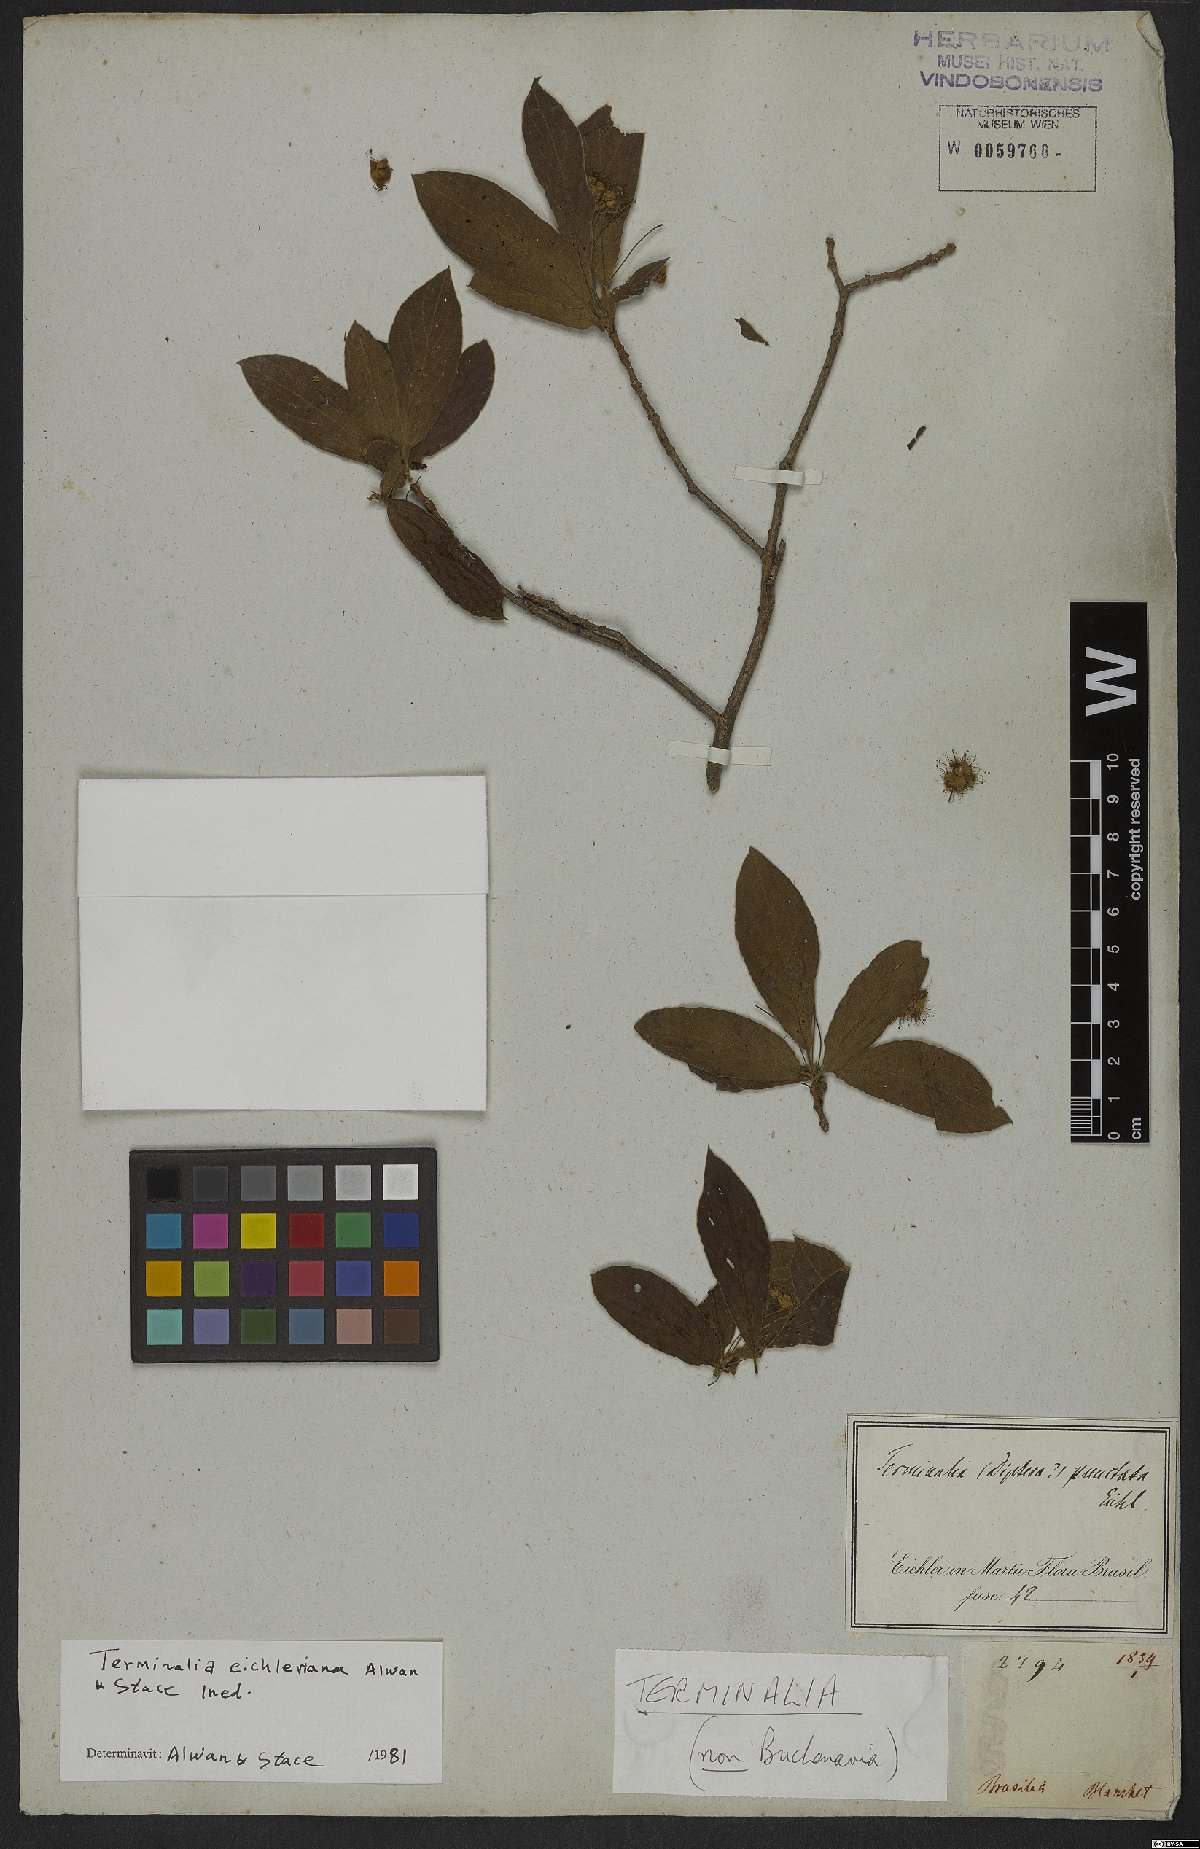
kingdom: Plantae
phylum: Tracheophyta
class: Magnoliopsida
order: Myrtales
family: Combretaceae
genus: Terminalia
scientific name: Terminalia eichleriana
